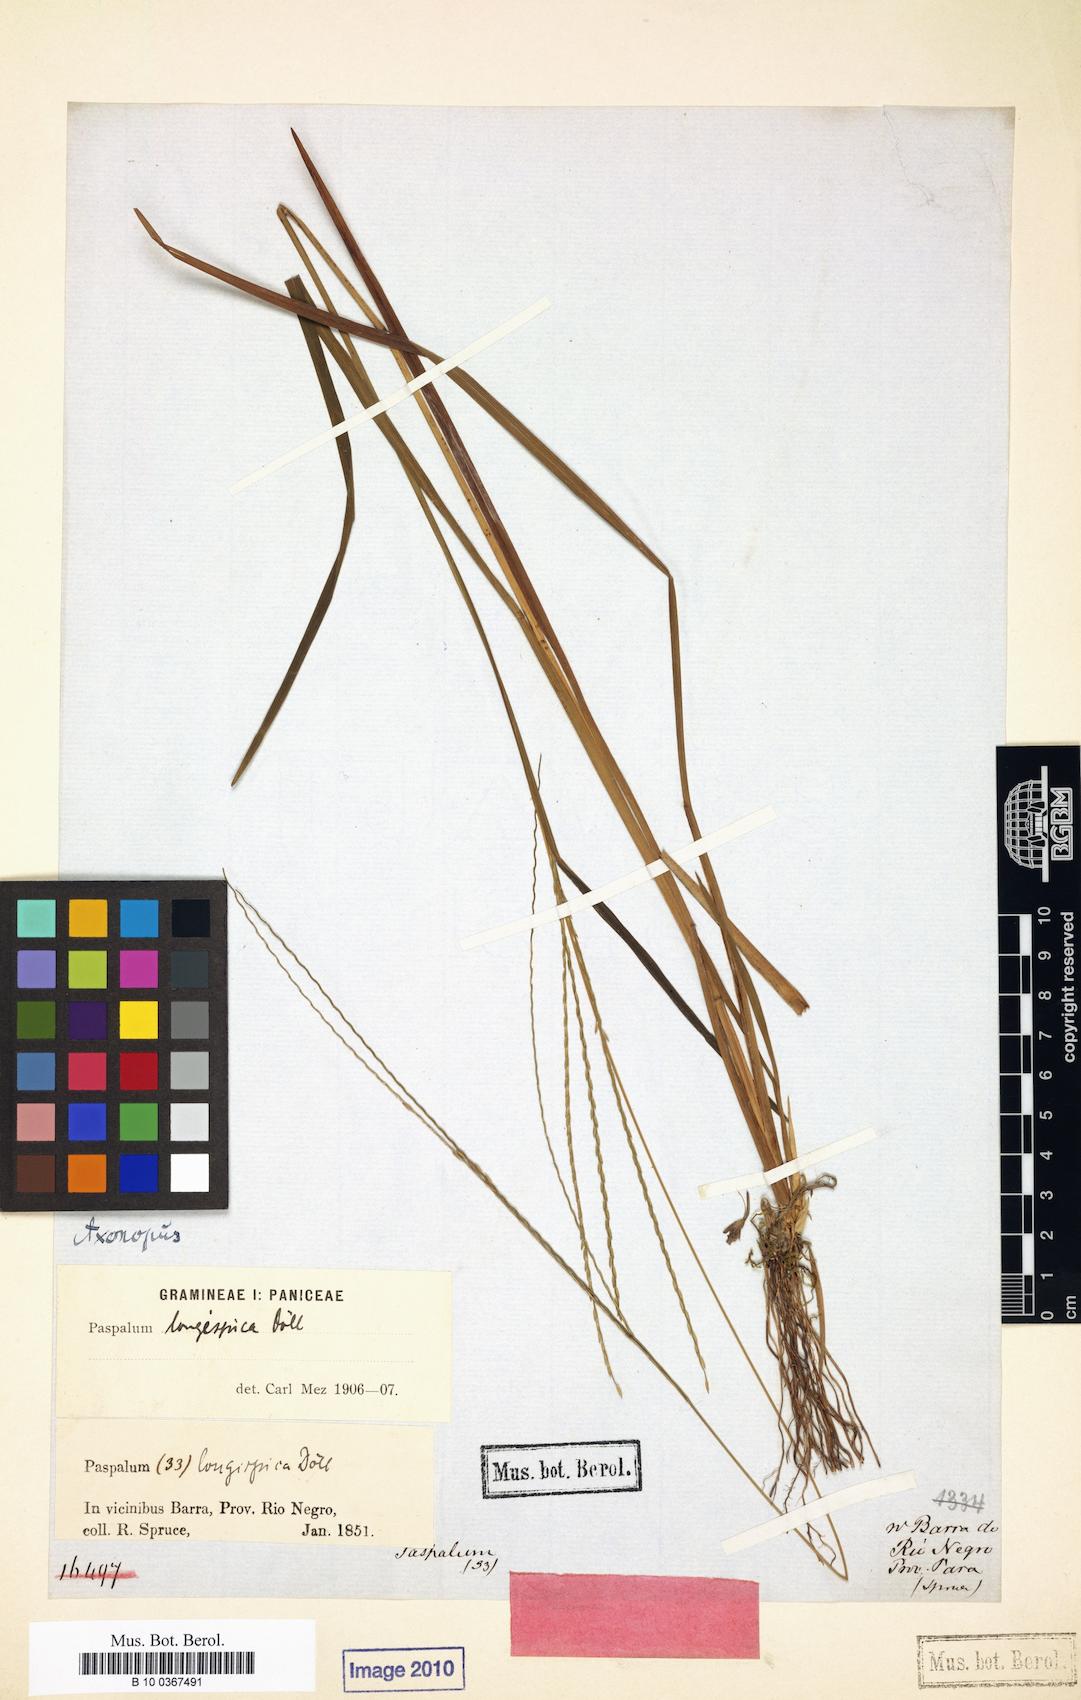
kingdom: Plantae
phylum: Tracheophyta
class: Liliopsida
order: Poales
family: Poaceae
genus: Axonopus
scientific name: Axonopus longispicus
